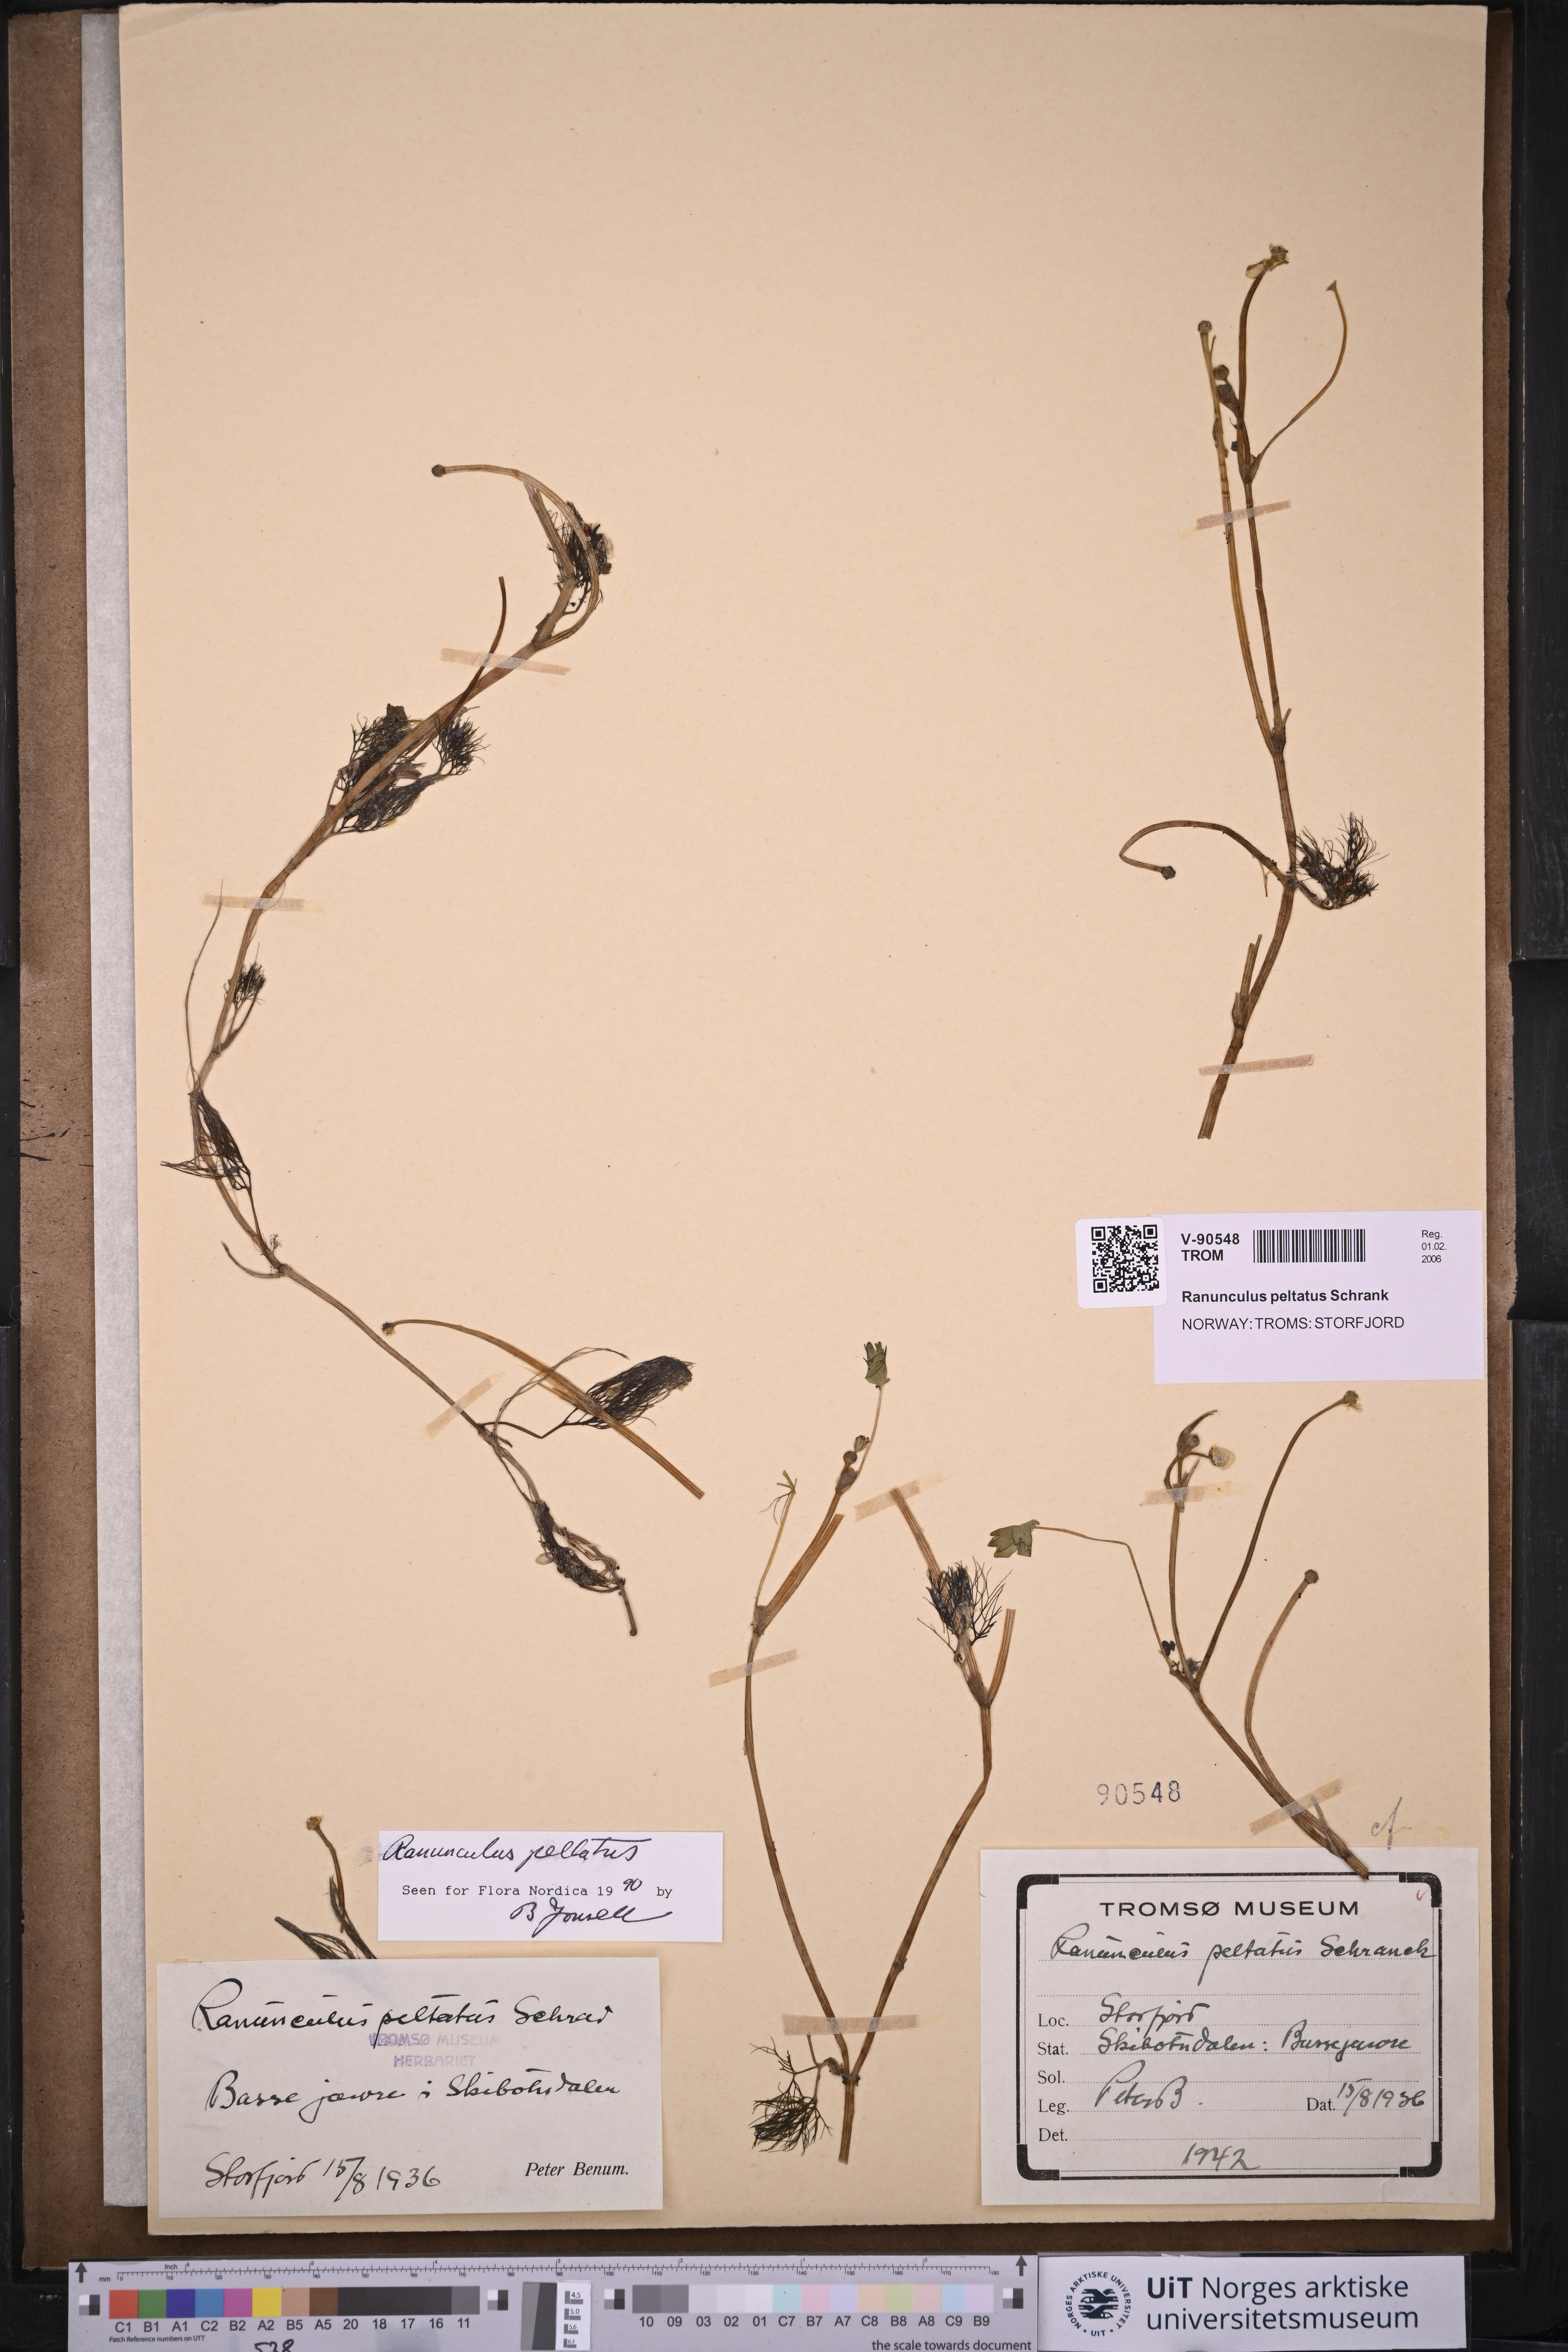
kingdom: Plantae
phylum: Tracheophyta
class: Magnoliopsida
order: Ranunculales
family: Ranunculaceae
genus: Ranunculus
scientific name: Ranunculus peltatus
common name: Pond water-crowfoot
